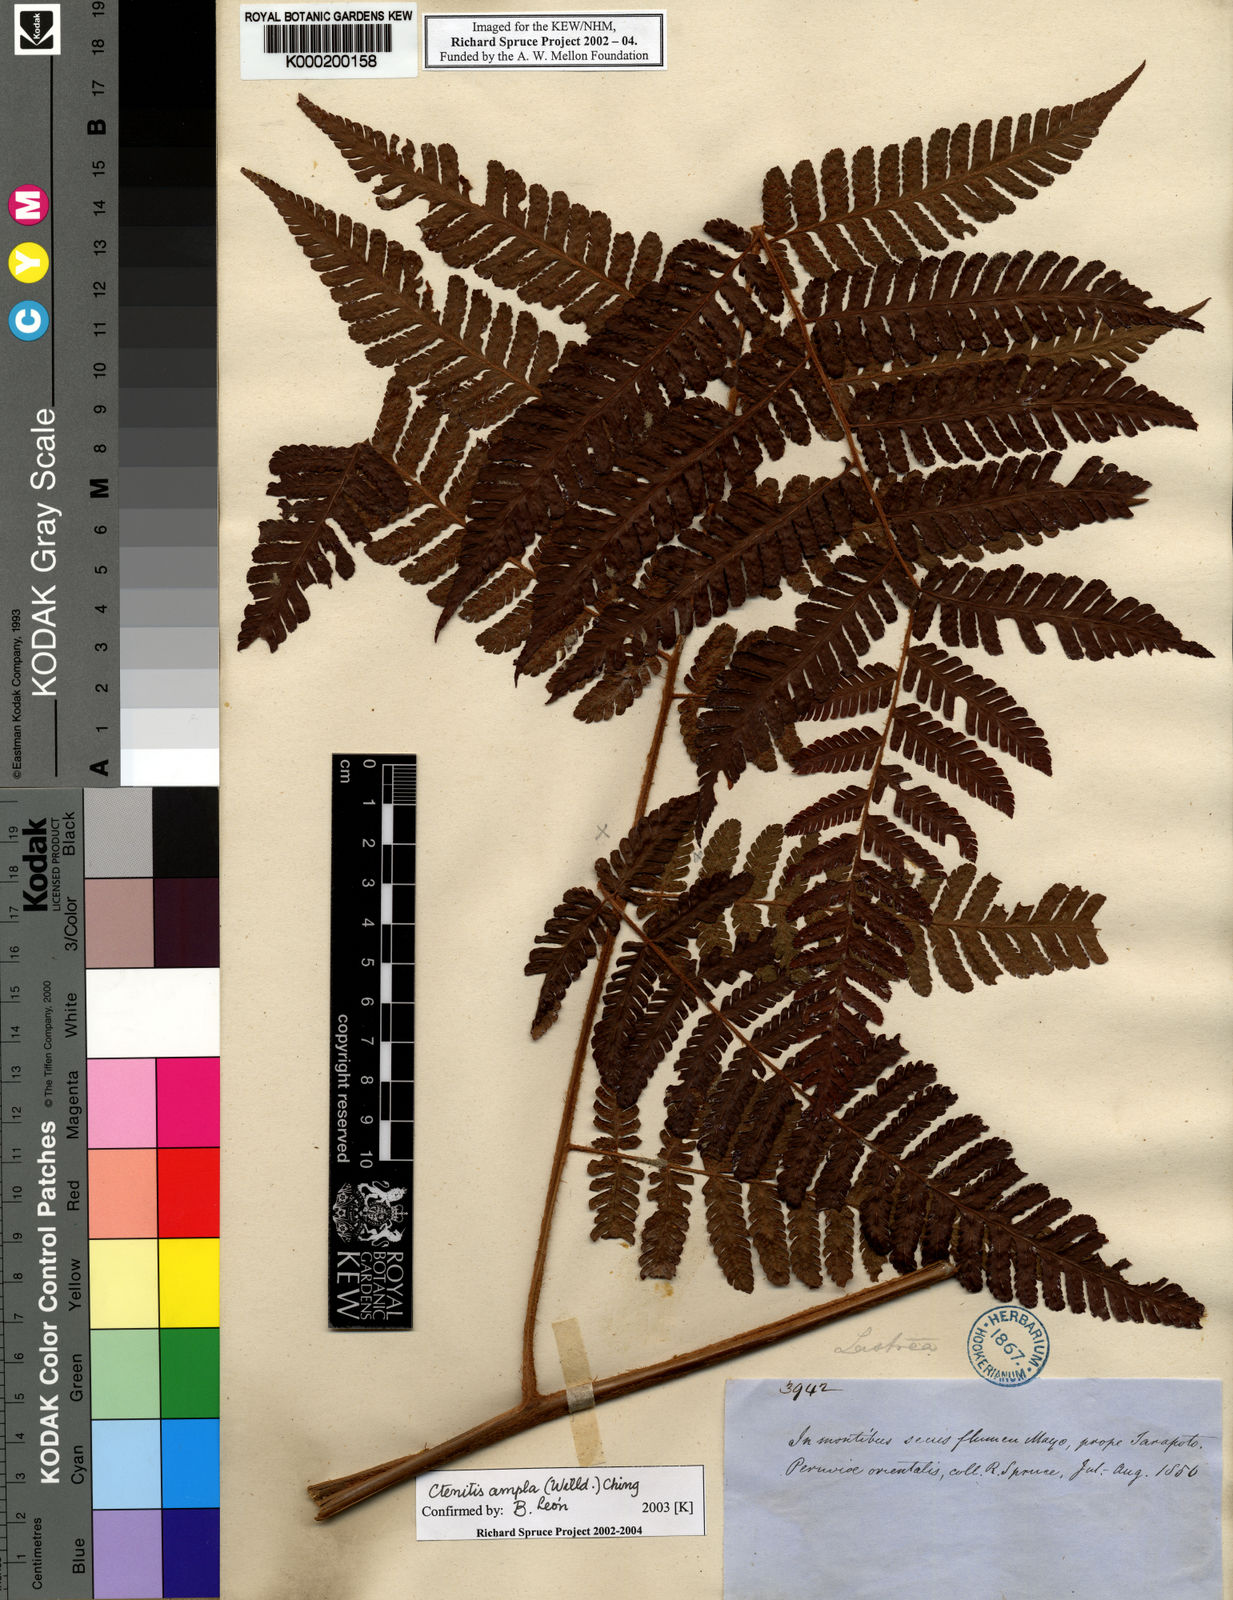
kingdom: Plantae
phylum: Tracheophyta
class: Polypodiopsida
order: Polypodiales
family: Dryopteridaceae
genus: Ctenitis
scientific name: Ctenitis sloanei
